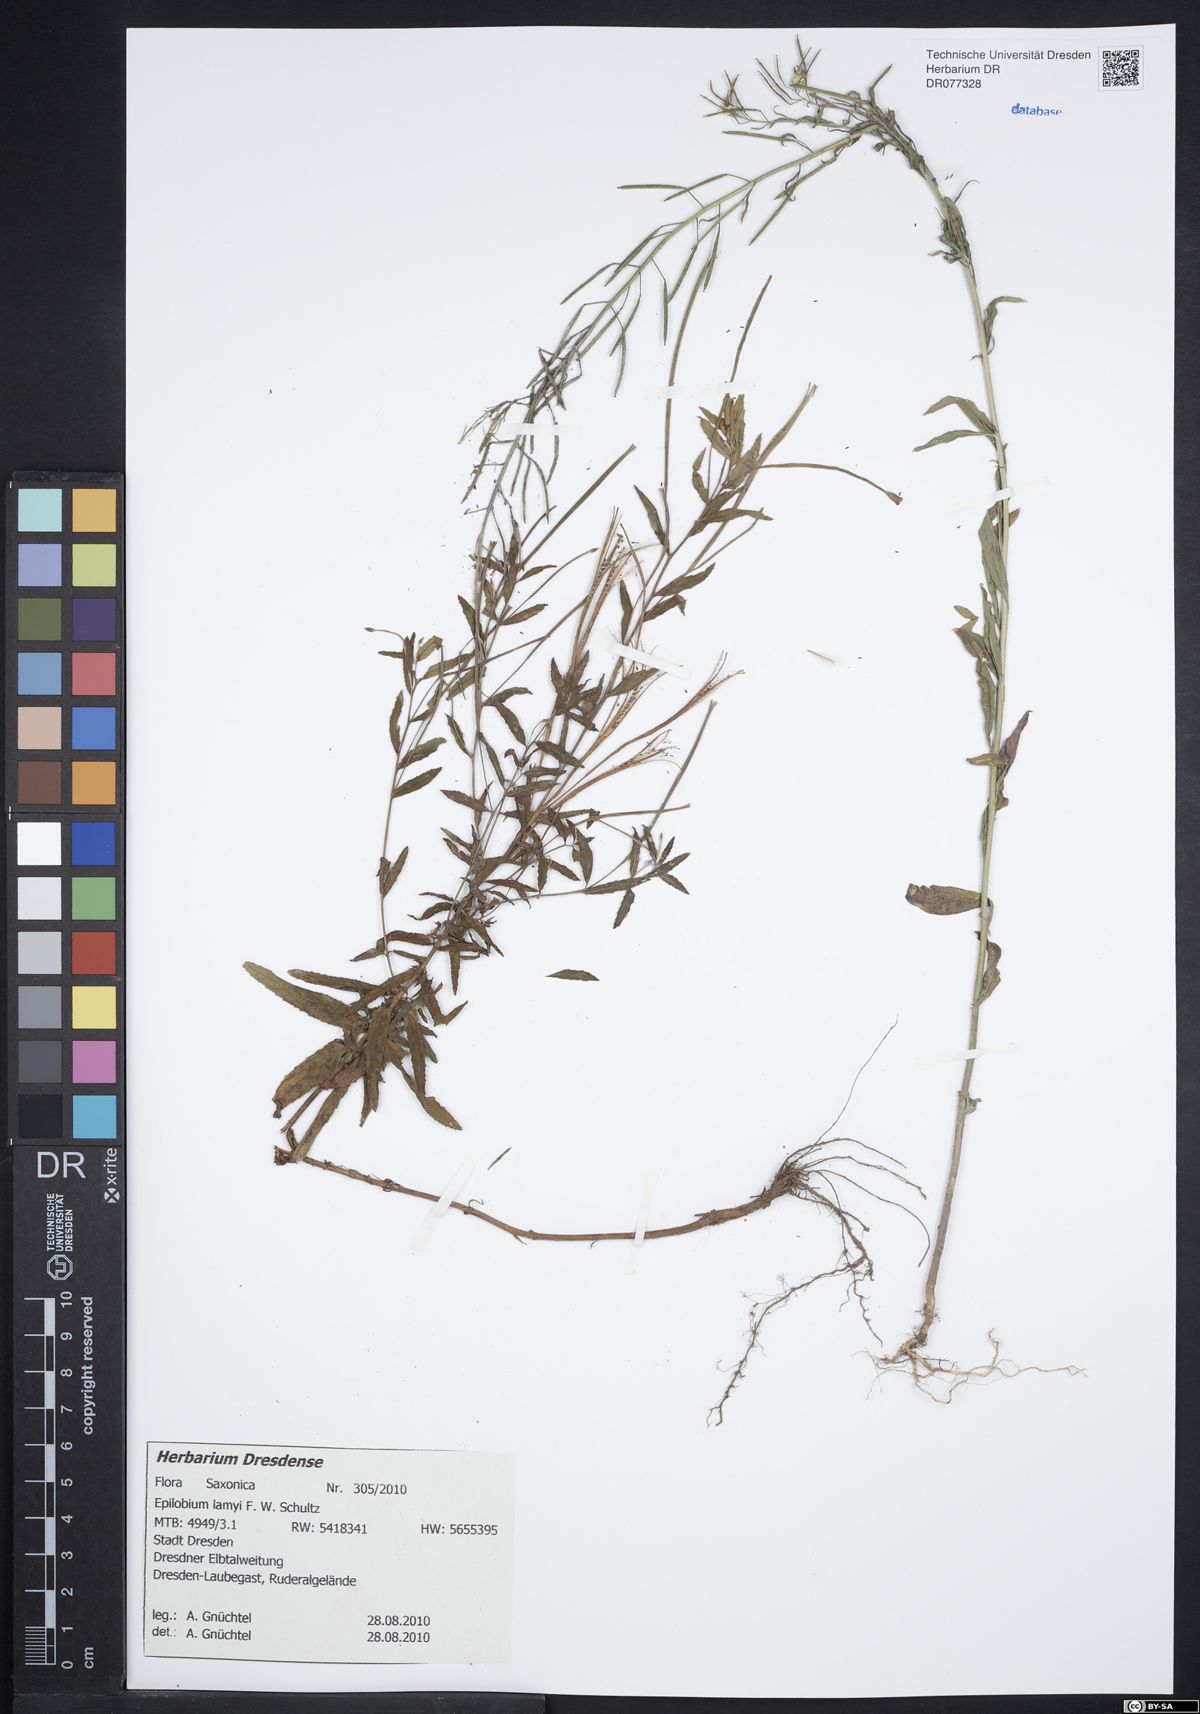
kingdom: Plantae
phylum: Tracheophyta
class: Magnoliopsida
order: Myrtales
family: Onagraceae
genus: Epilobium
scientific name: Epilobium lamyi
